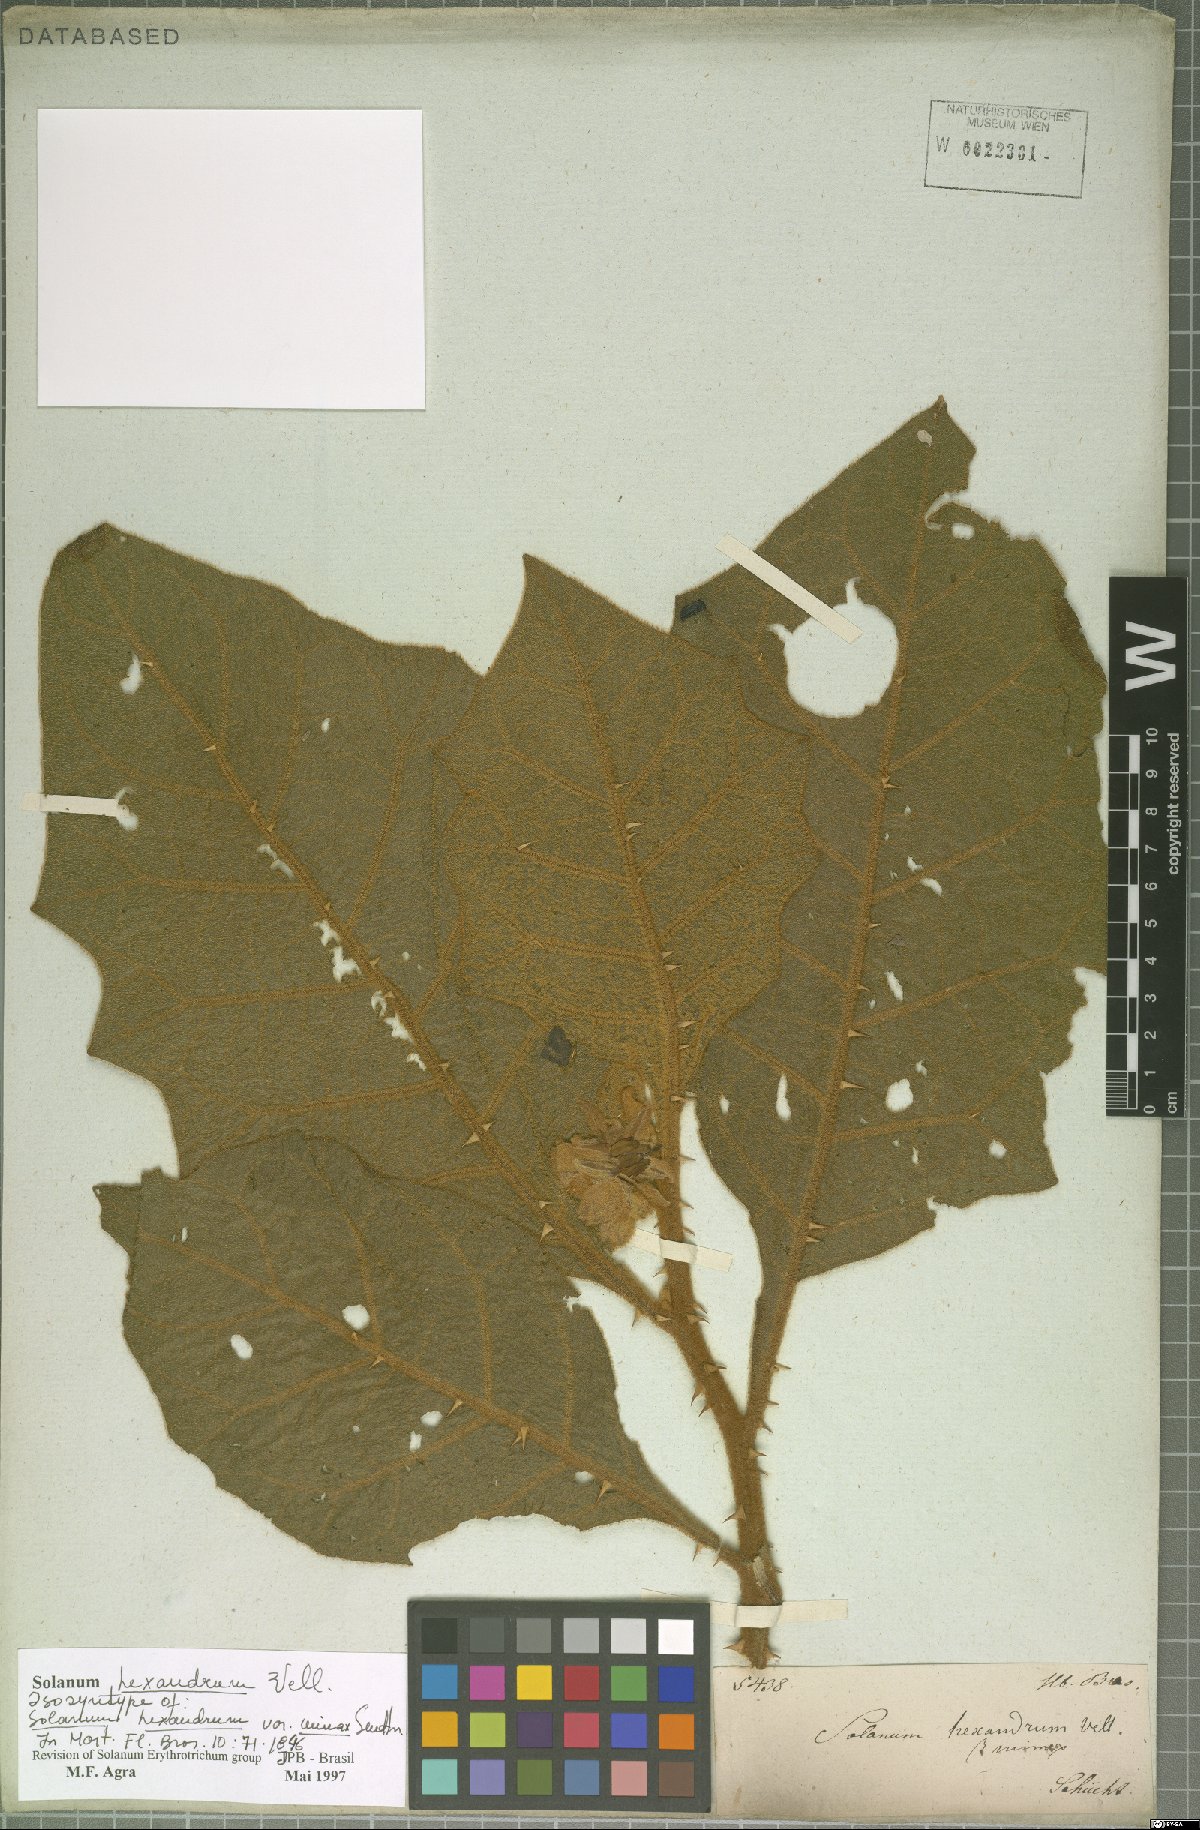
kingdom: Plantae
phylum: Tracheophyta
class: Magnoliopsida
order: Solanales
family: Solanaceae
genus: Solanum
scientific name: Solanum hexandrum
